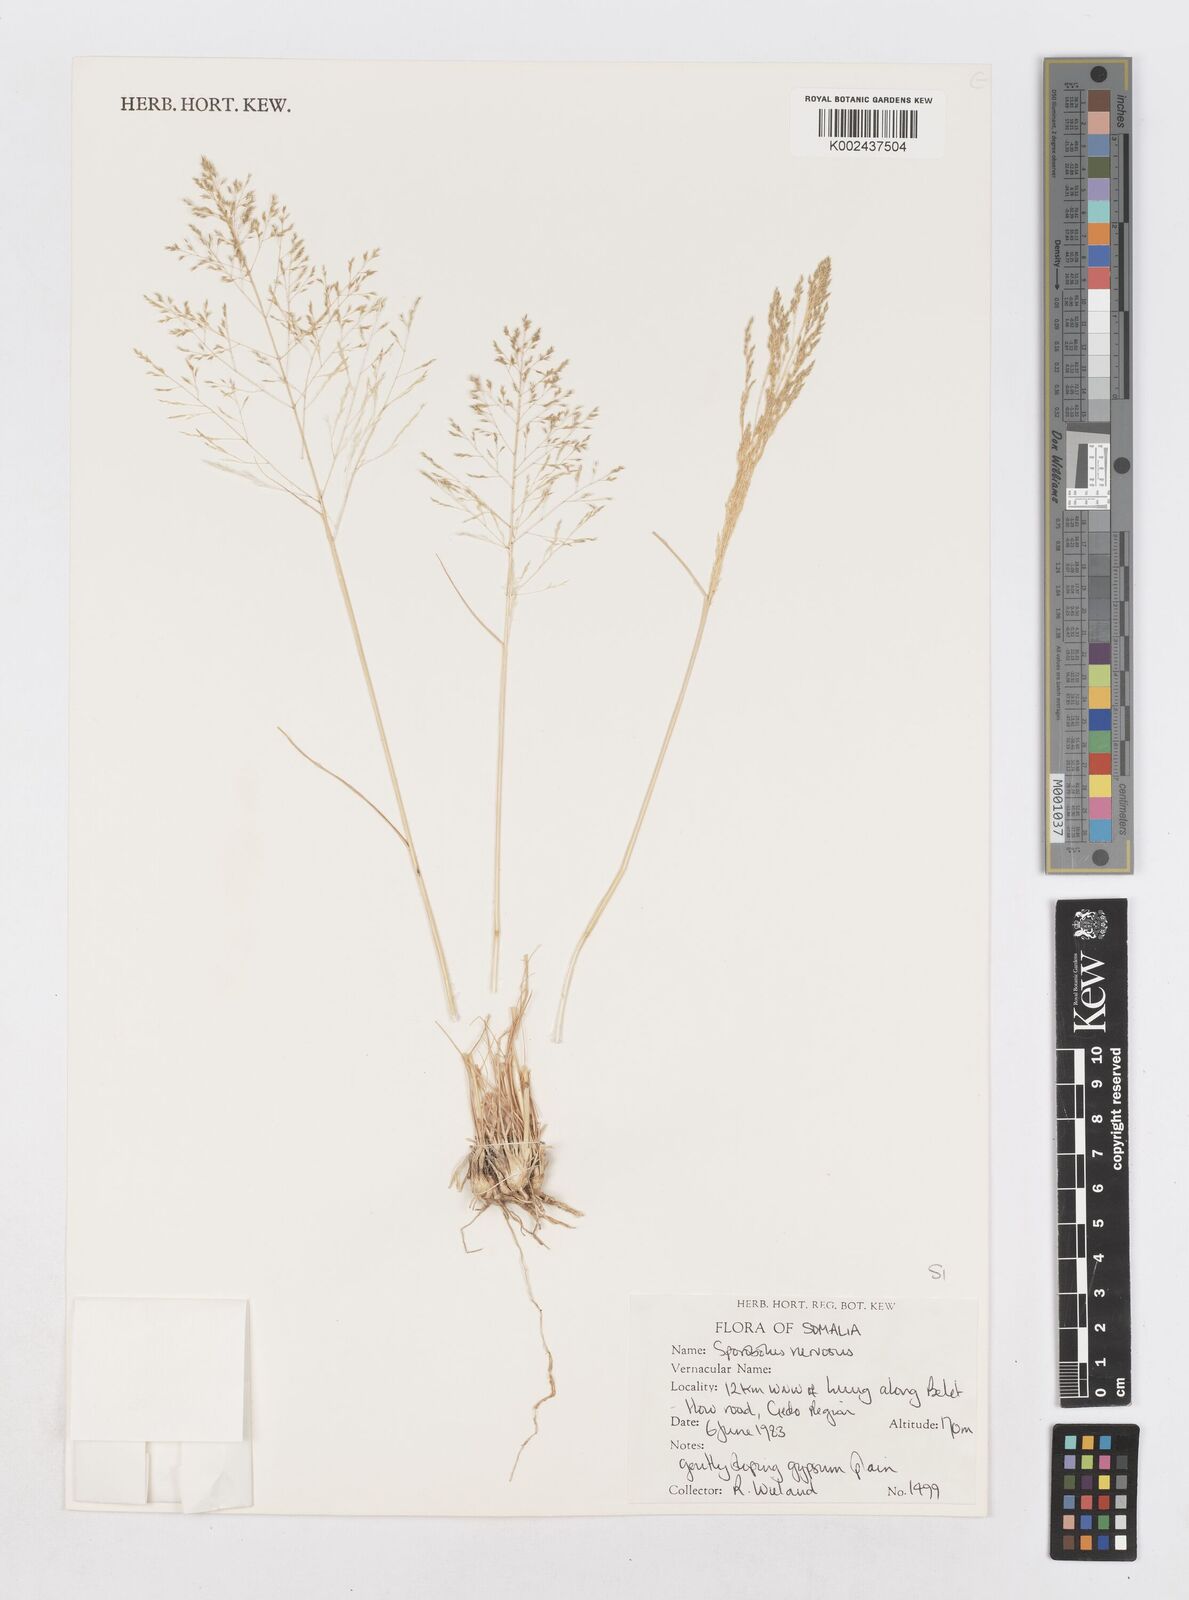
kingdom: Plantae
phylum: Tracheophyta
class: Liliopsida
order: Poales
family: Poaceae
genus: Sporobolus
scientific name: Sporobolus nervosus
